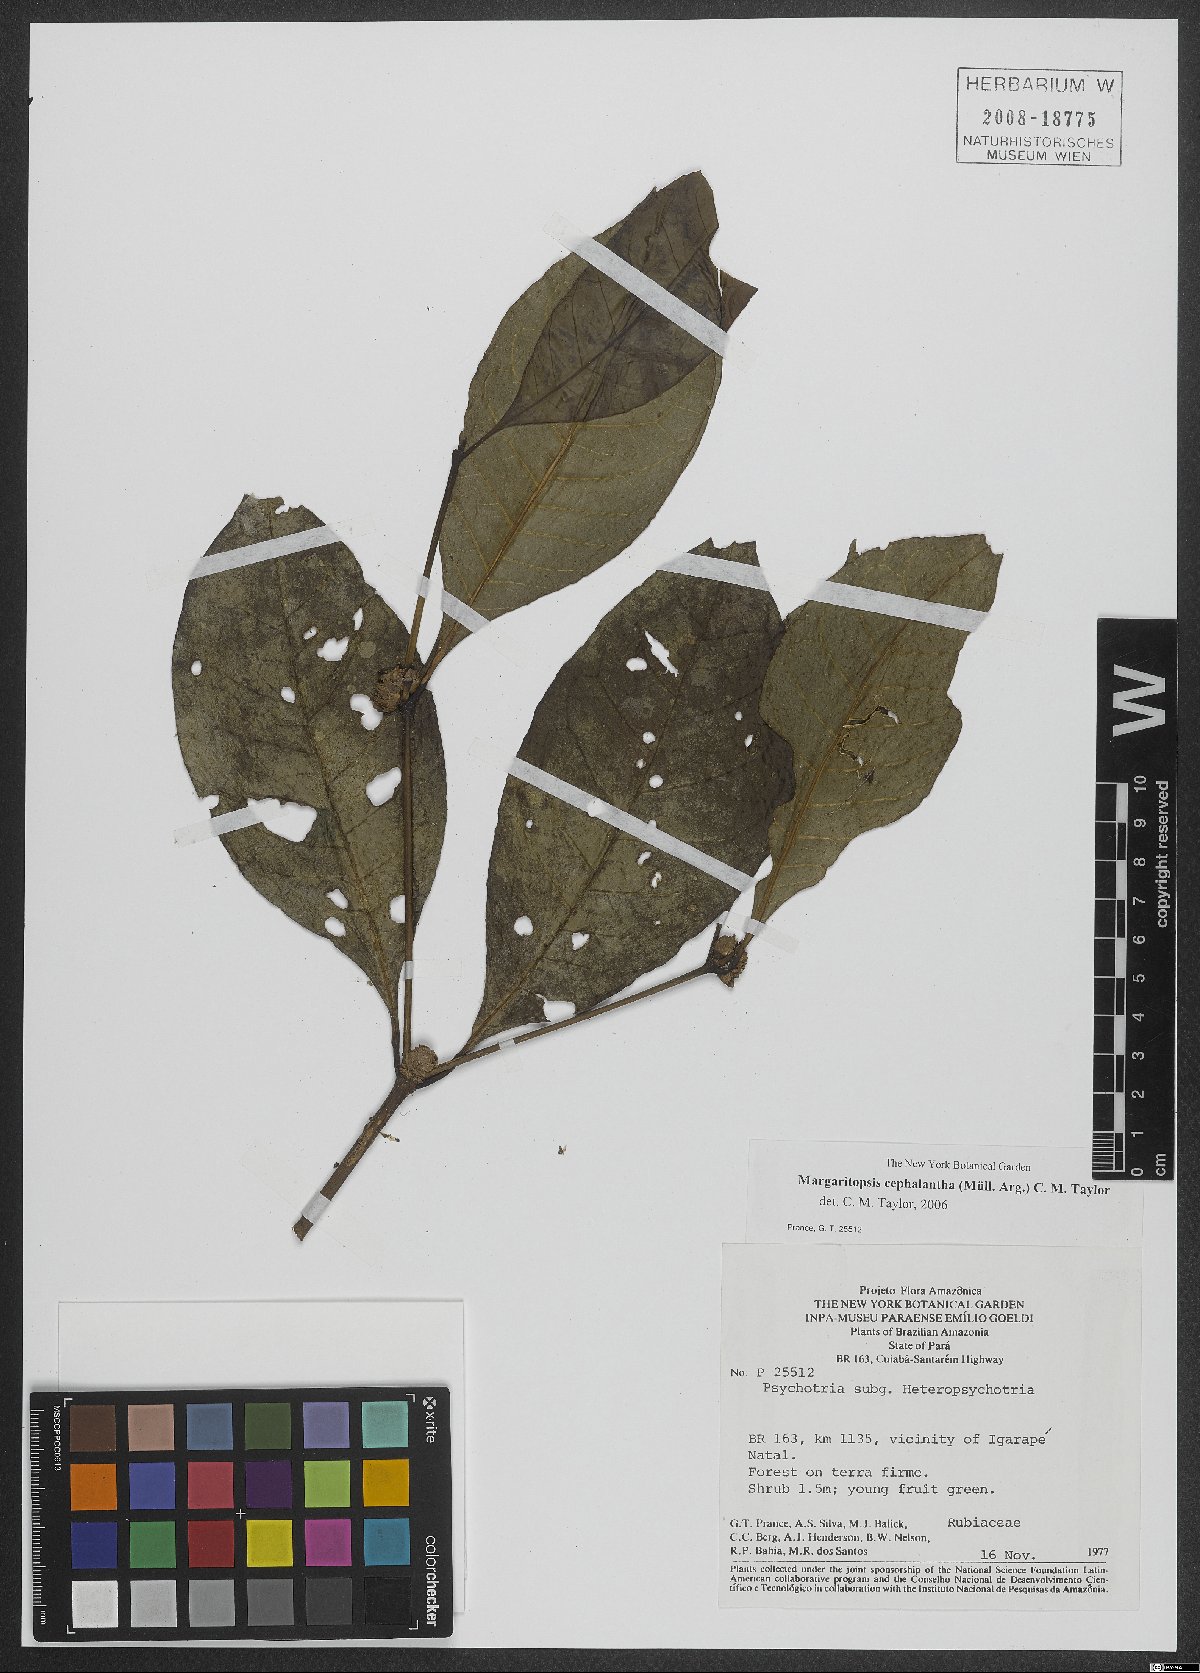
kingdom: Plantae
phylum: Tracheophyta
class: Magnoliopsida
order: Gentianales
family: Rubiaceae
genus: Eumachia
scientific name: Eumachia cephalantha
